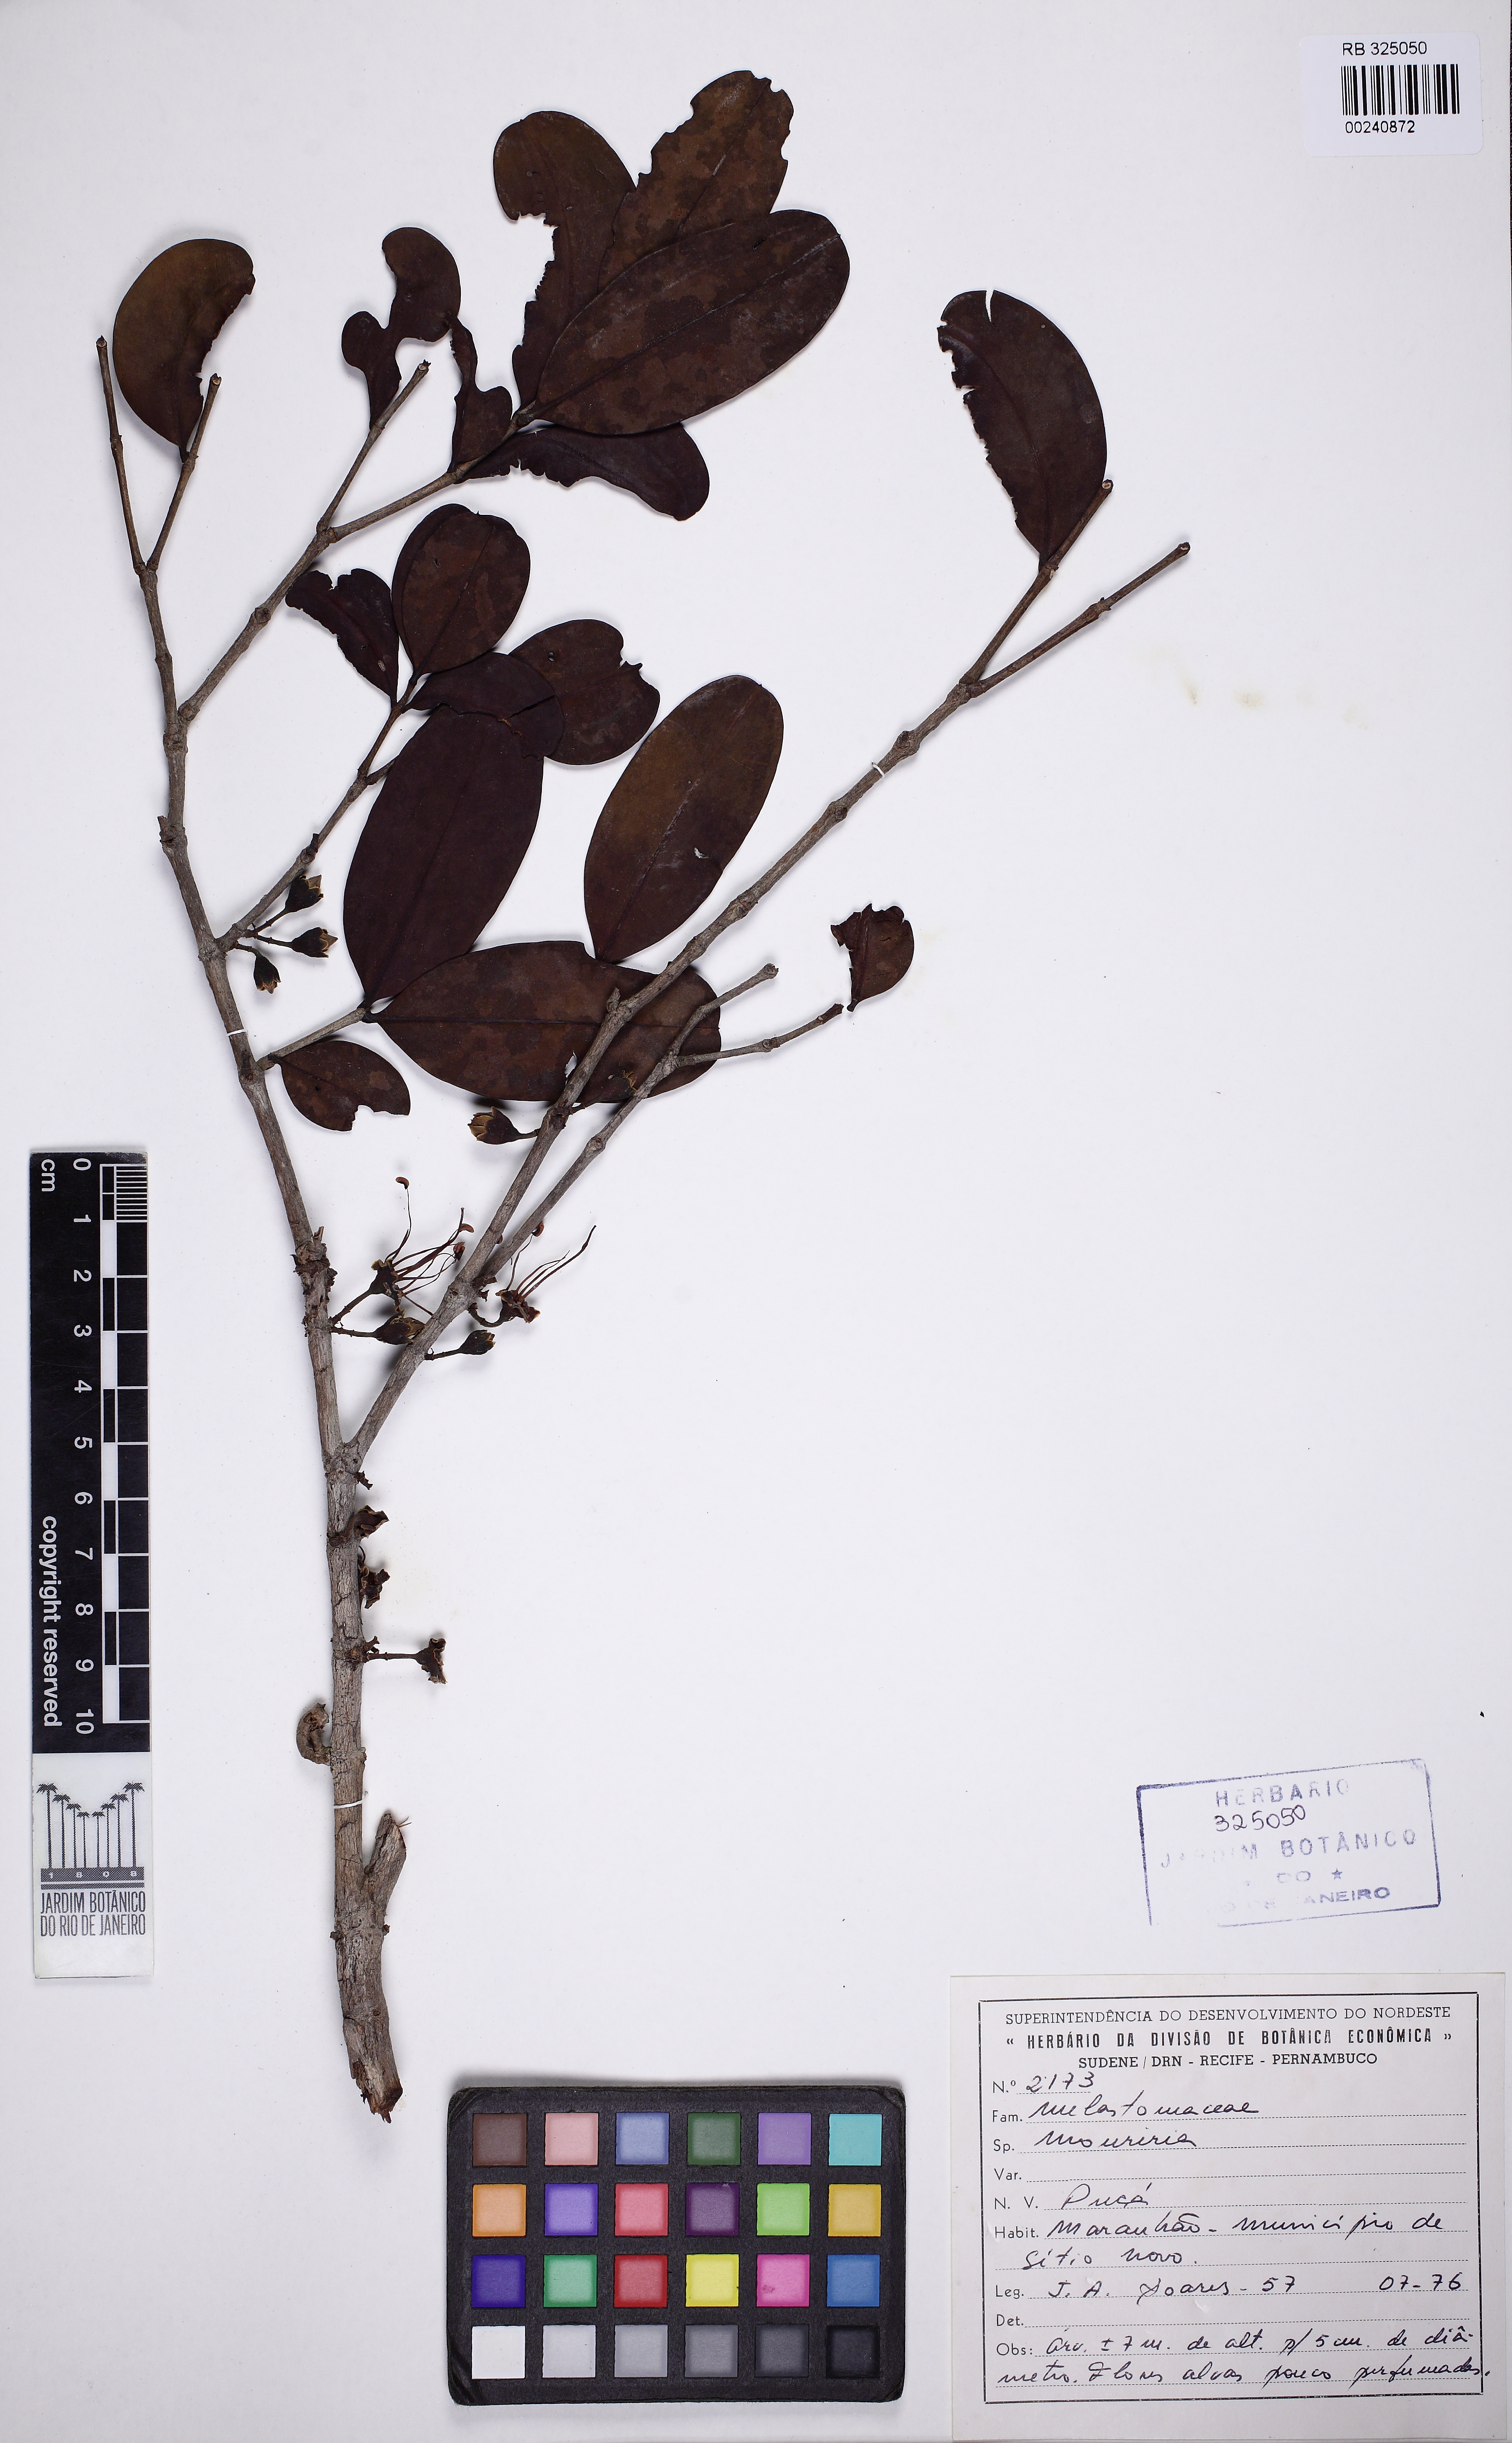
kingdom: Plantae
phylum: Tracheophyta
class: Magnoliopsida
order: Myrtales
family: Melastomataceae
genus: Mouriri
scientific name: Mouriri pusa
